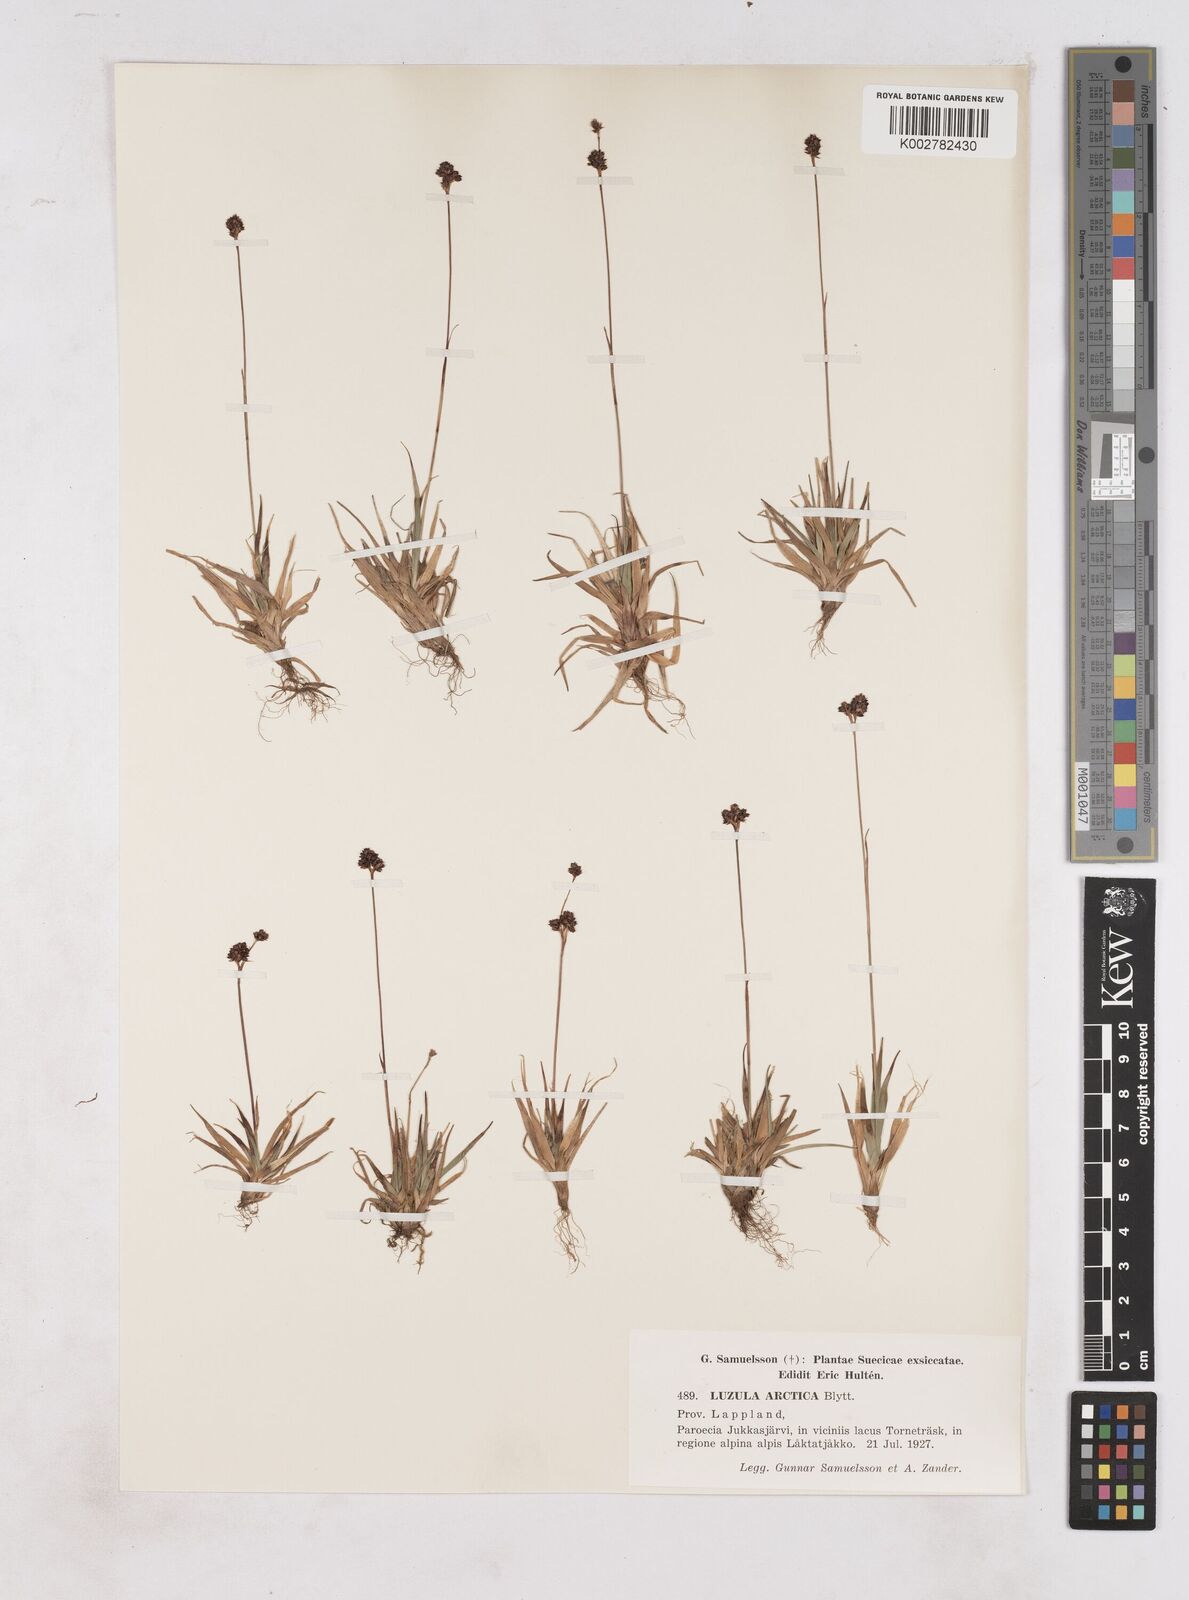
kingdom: Plantae
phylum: Tracheophyta
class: Liliopsida
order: Poales
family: Juncaceae
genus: Luzula
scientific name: Luzula nivalis
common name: Arctic woodrush
